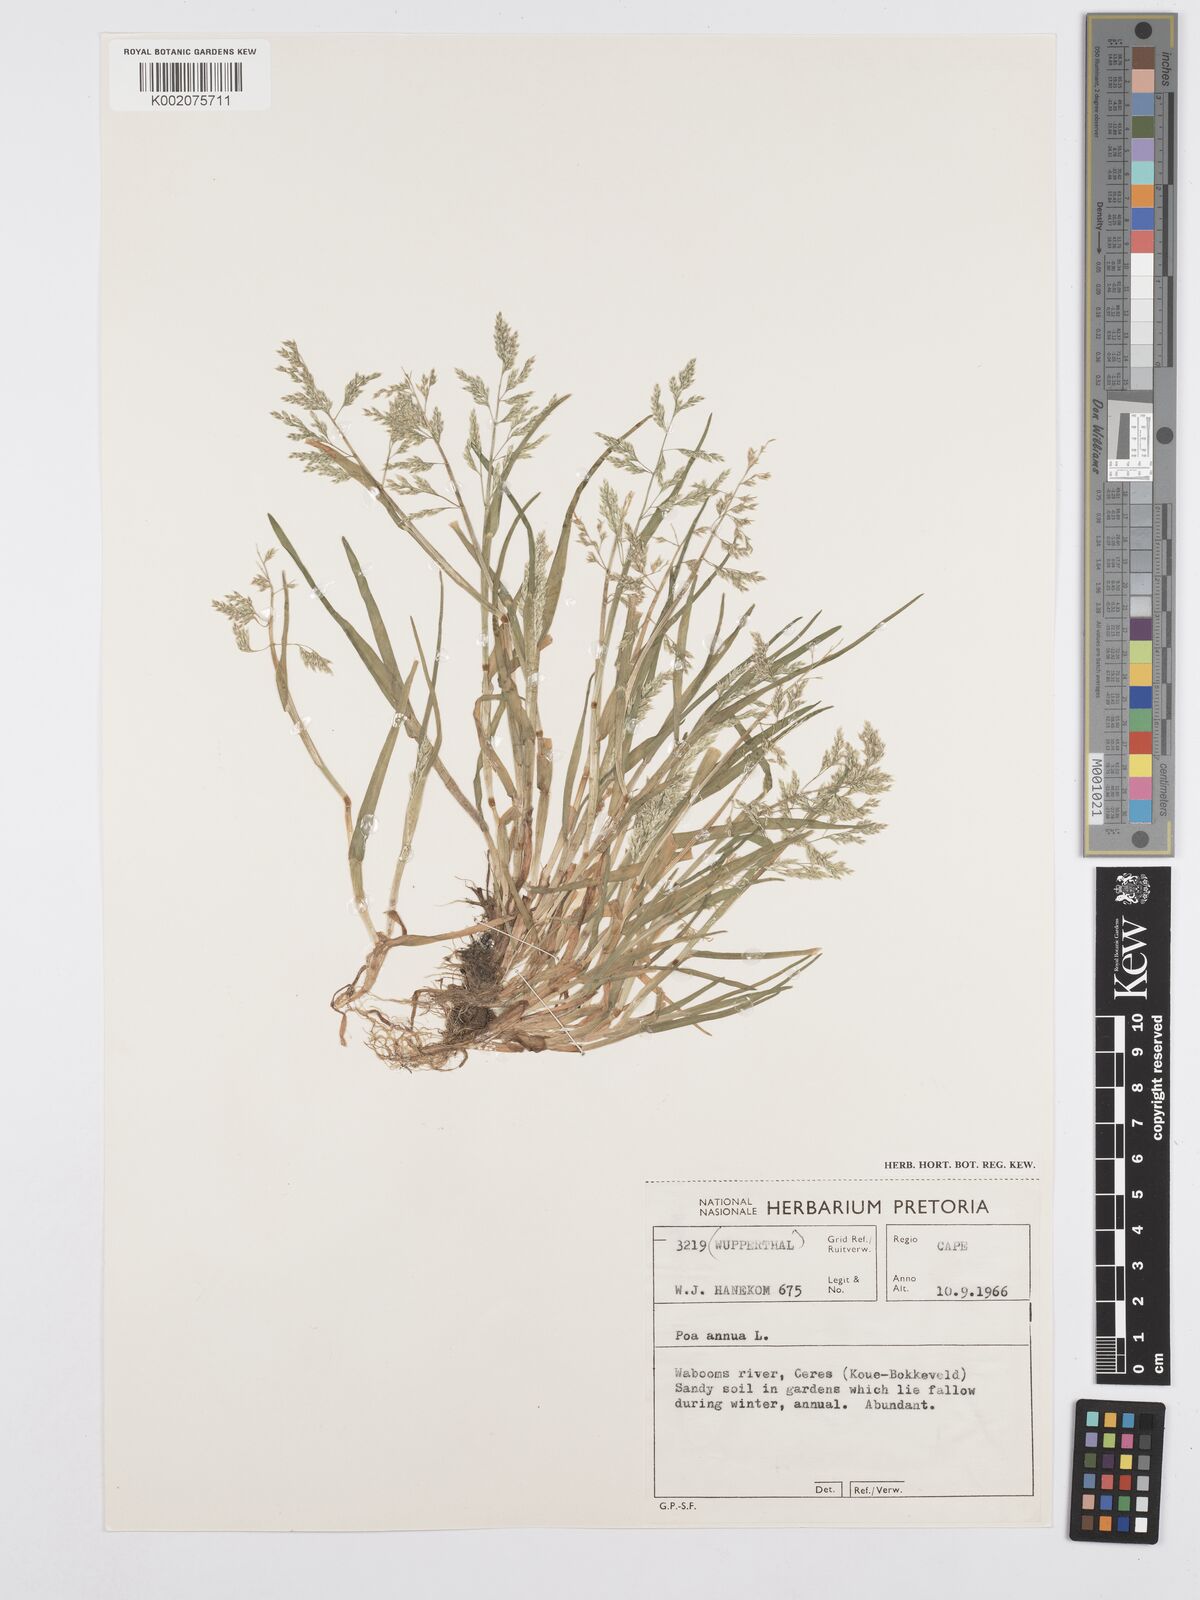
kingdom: Plantae
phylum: Tracheophyta
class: Liliopsida
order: Poales
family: Poaceae
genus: Poa
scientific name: Poa annua
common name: Annual bluegrass
